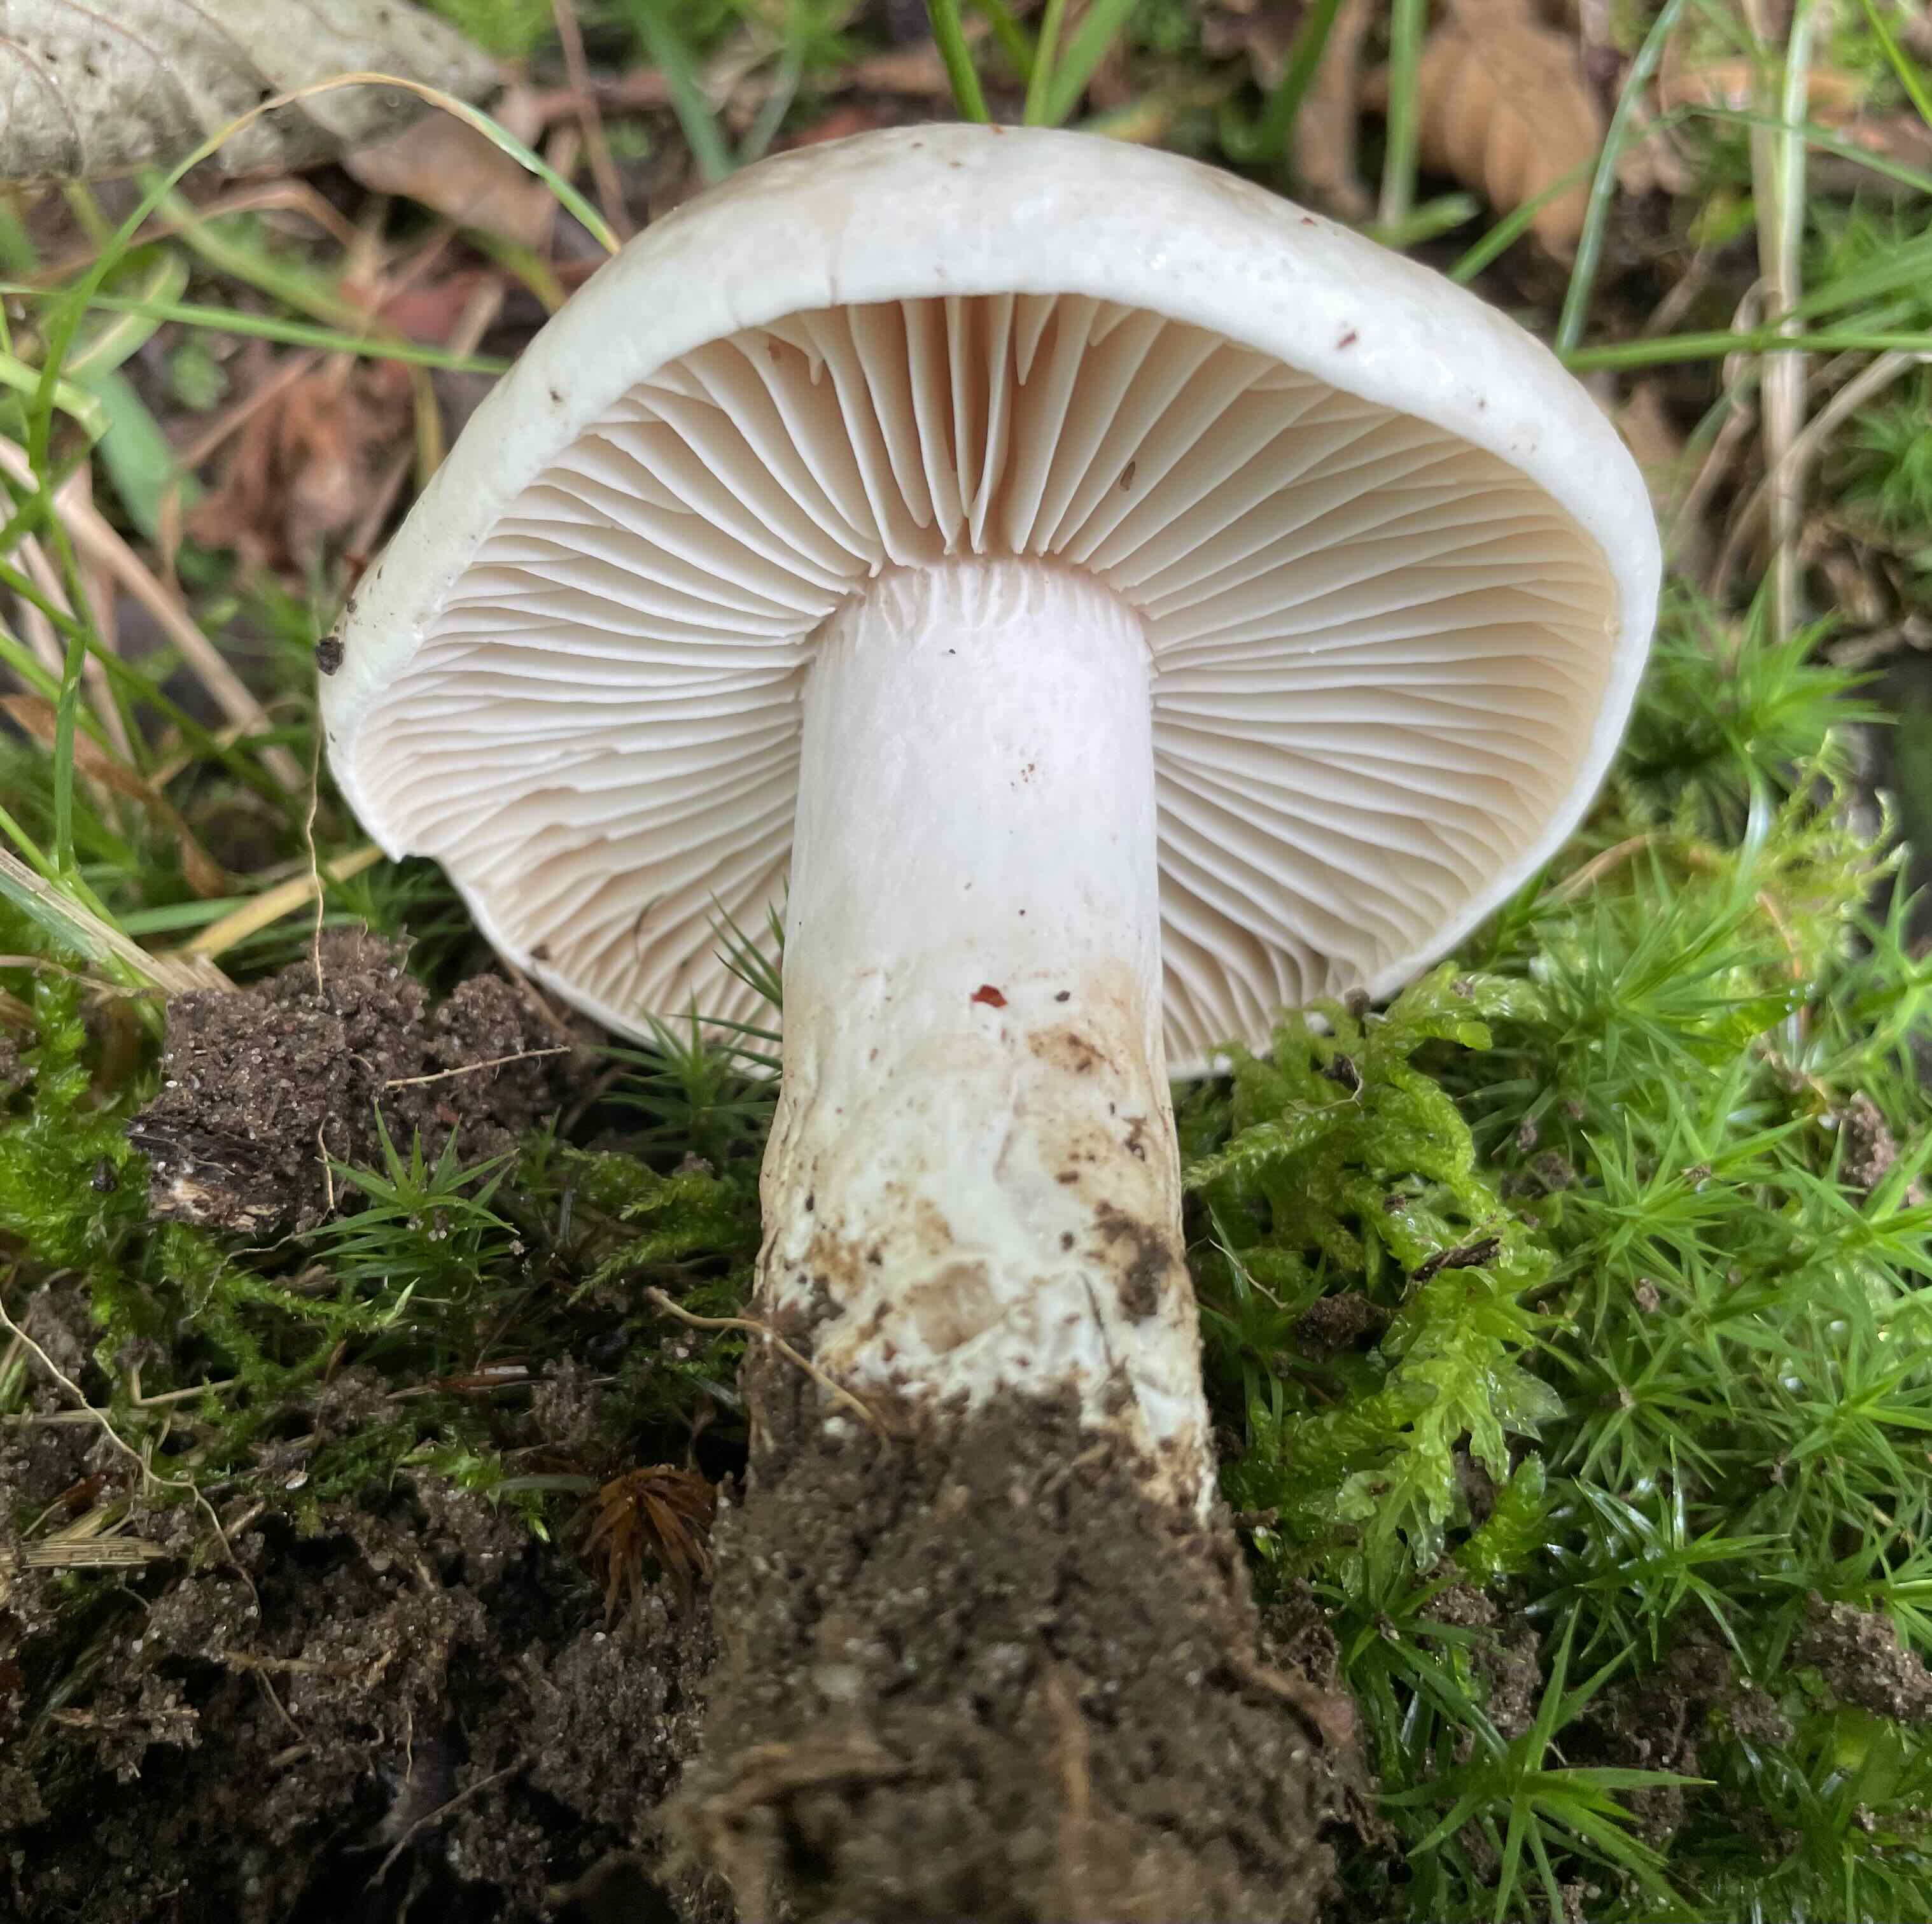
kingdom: Fungi
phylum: Basidiomycota
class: Agaricomycetes
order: Russulales
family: Russulaceae
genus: Russula
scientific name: Russula adusta
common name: sværtende skørhat
